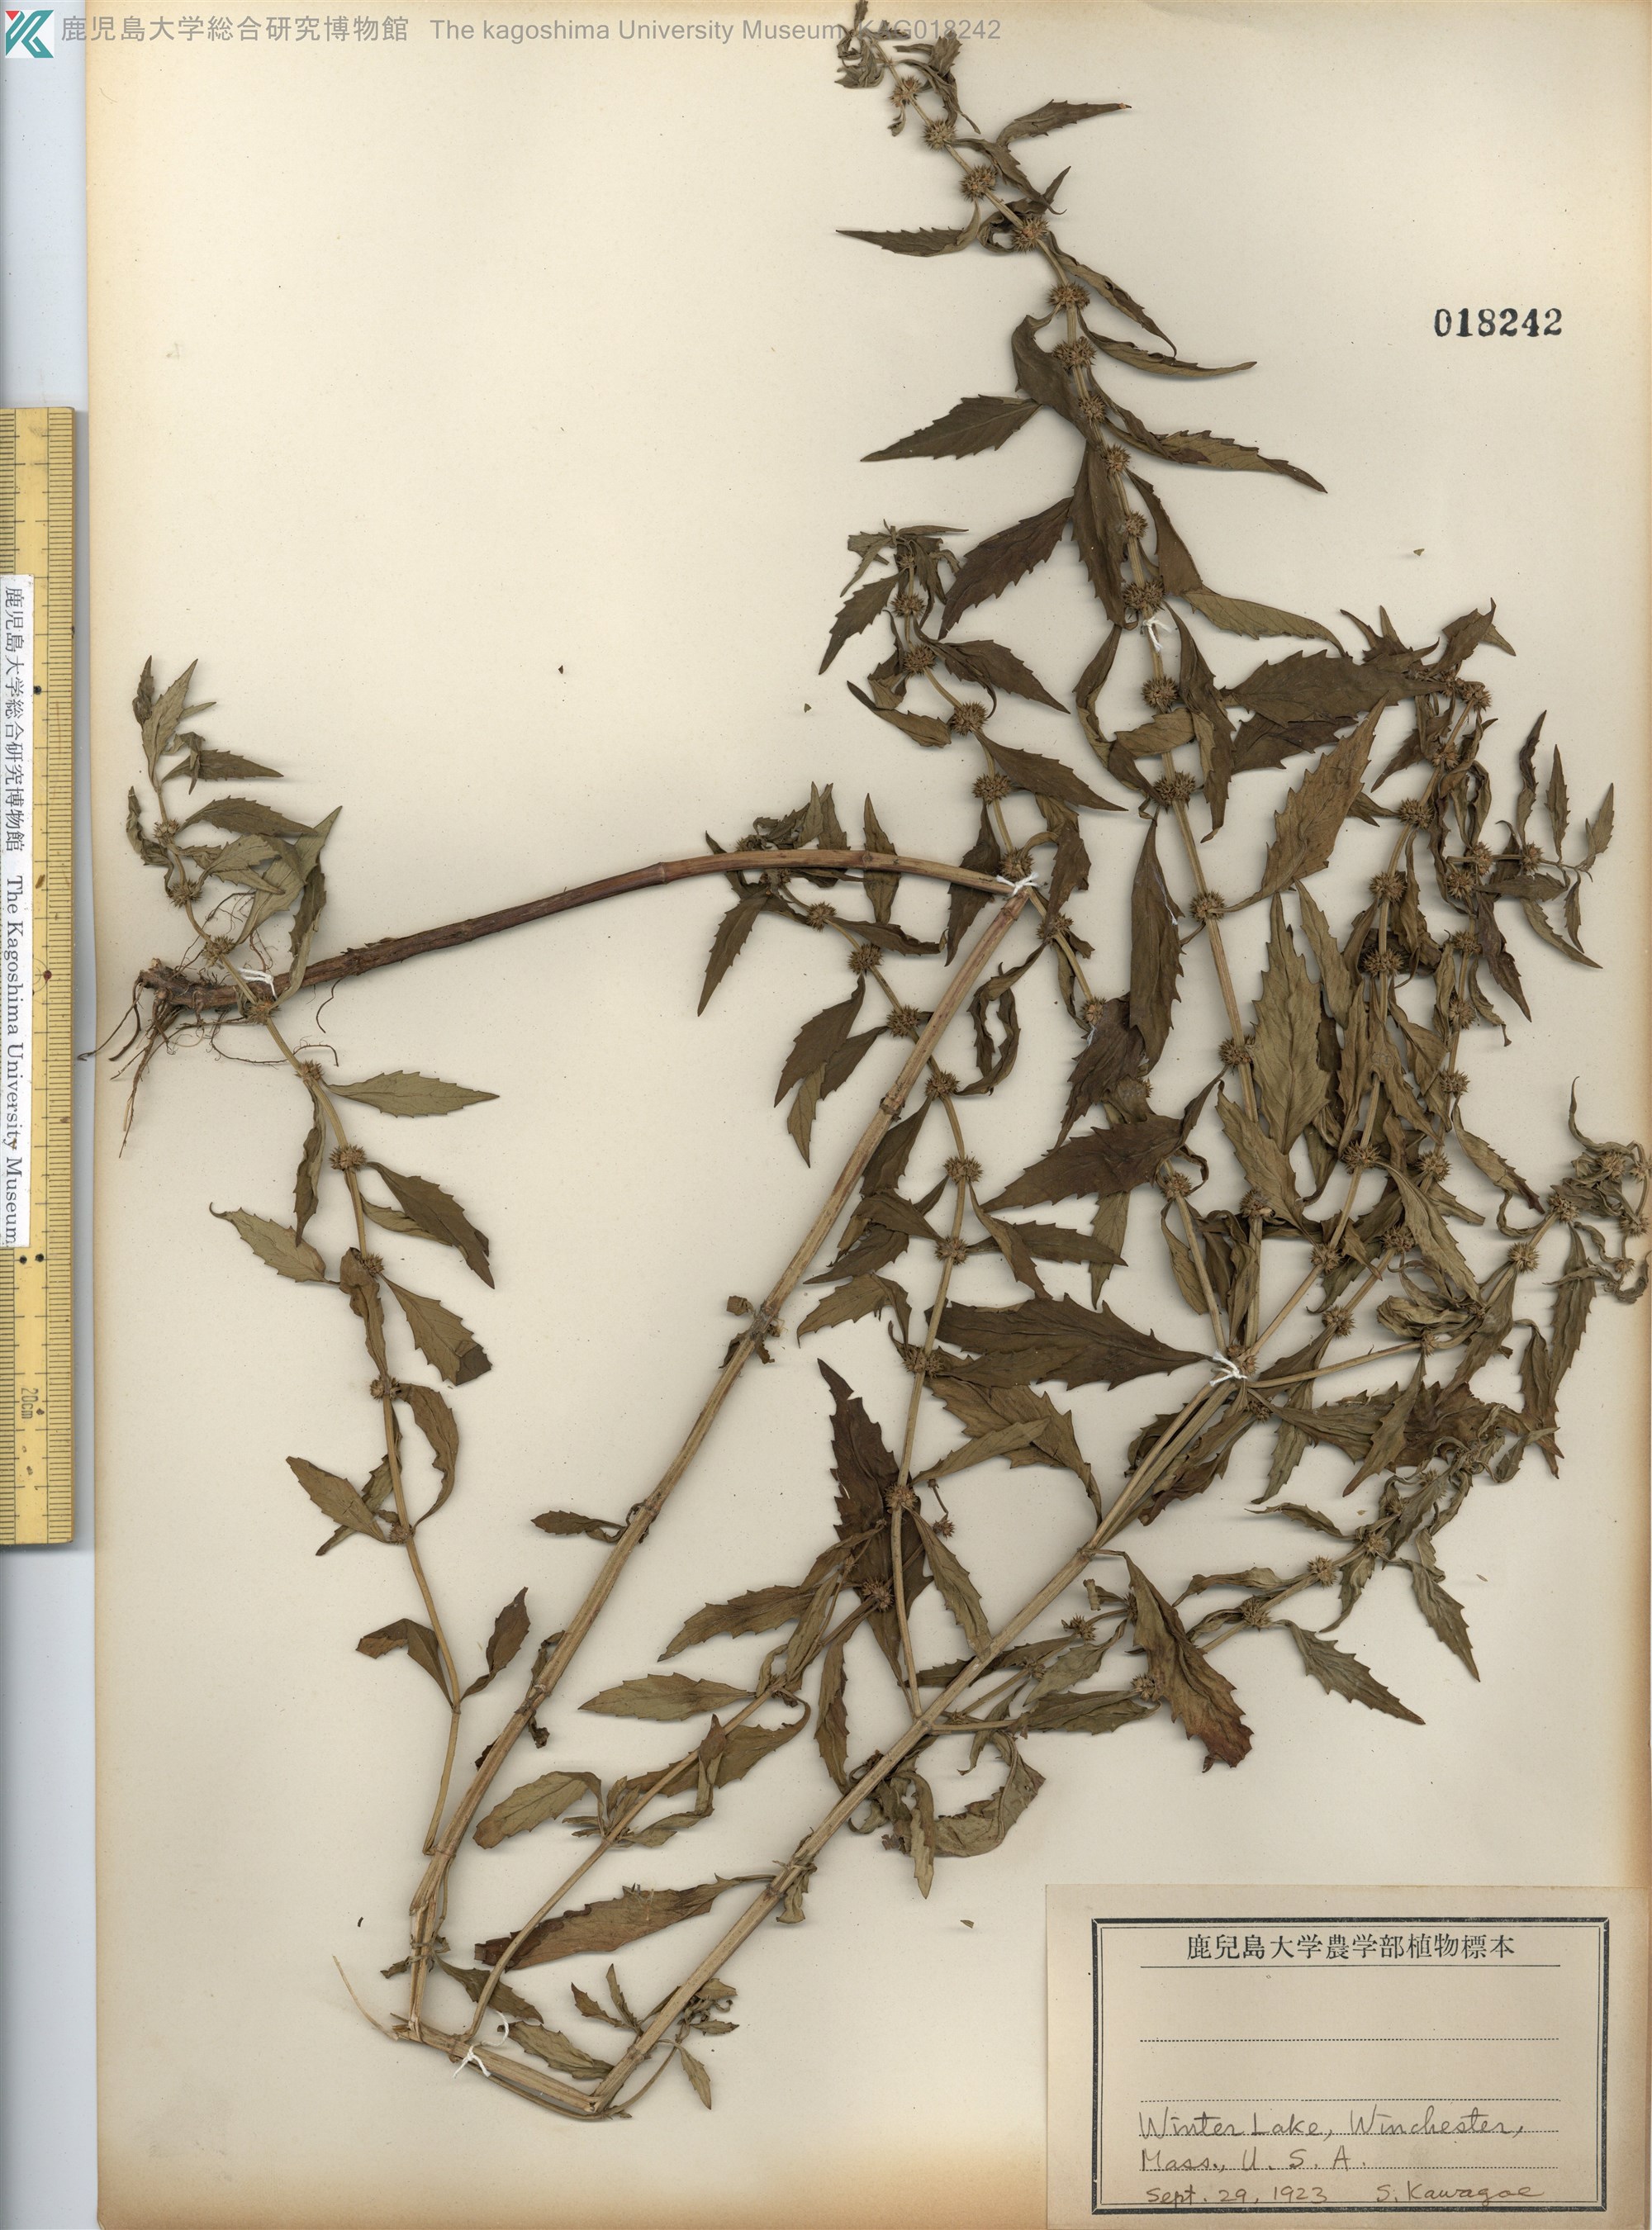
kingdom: Plantae
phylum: Tracheophyta
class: Magnoliopsida
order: Lamiales
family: Lamiaceae
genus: Lycopus
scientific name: Lycopus americanus
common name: American bugleweed
